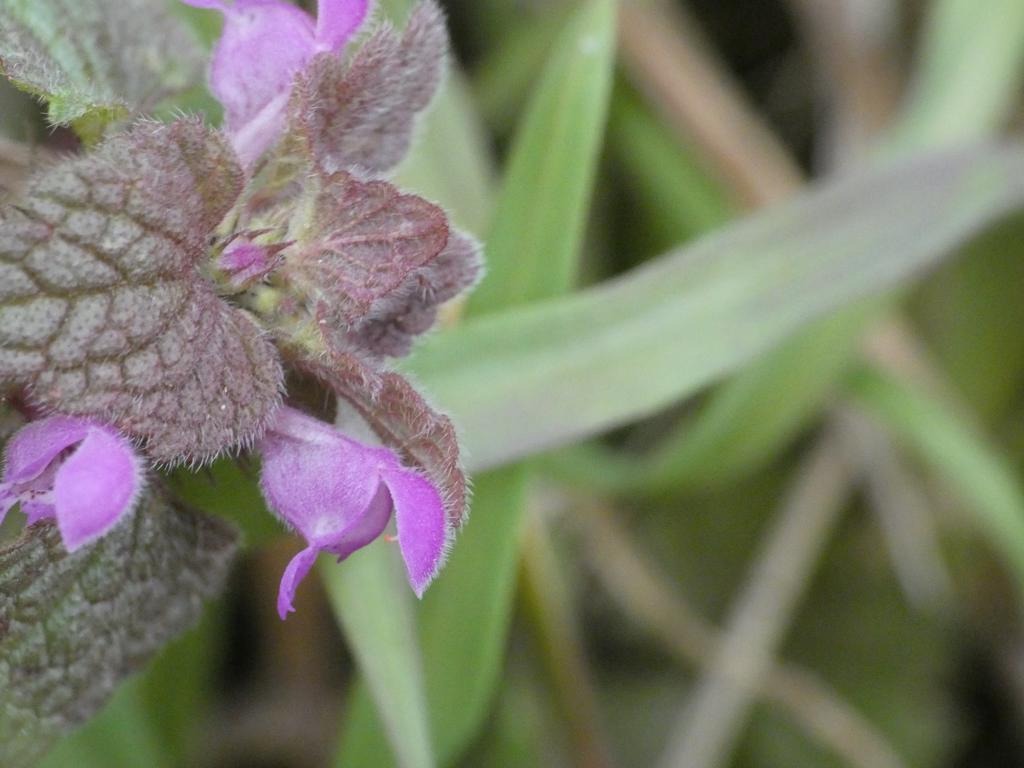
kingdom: Plantae
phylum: Tracheophyta
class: Magnoliopsida
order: Lamiales
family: Lamiaceae
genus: Lamium
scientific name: Lamium purpureum
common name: Rød tvetand
